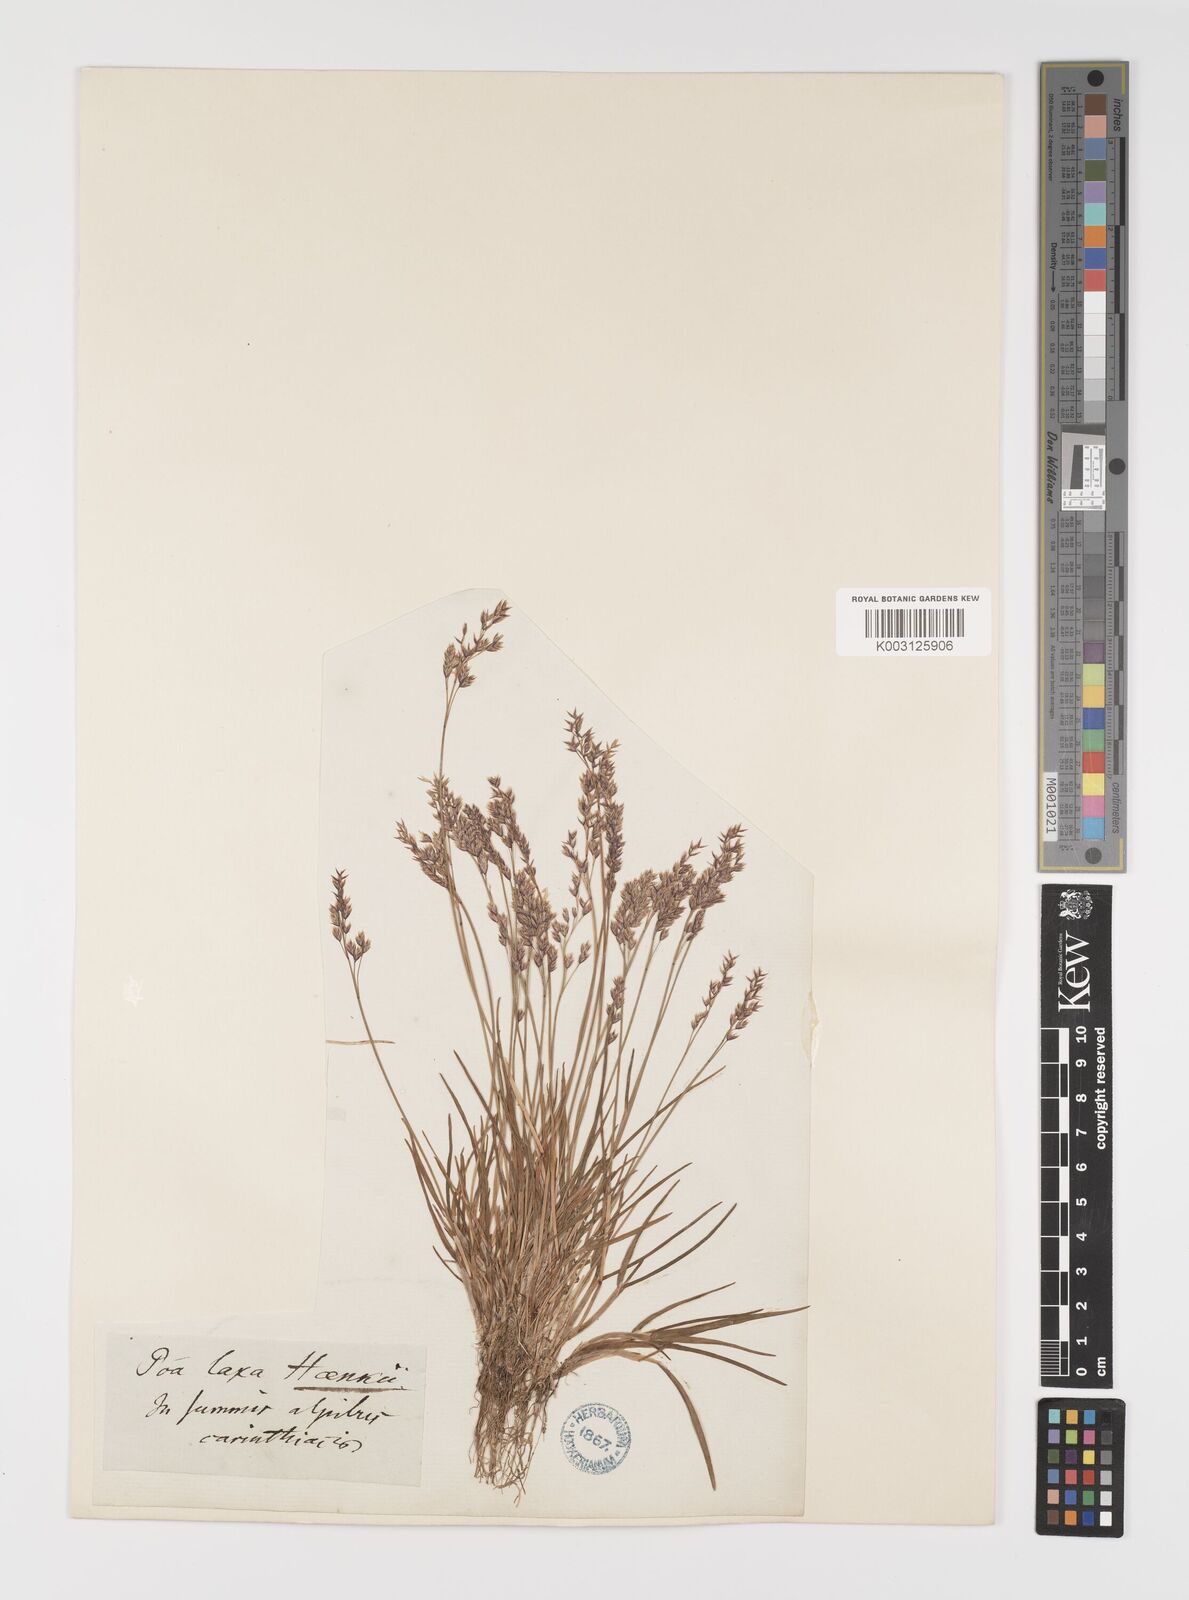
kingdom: Plantae
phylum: Tracheophyta
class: Liliopsida
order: Poales
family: Poaceae
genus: Poa
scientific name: Poa laxa
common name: Lax bluegrass
